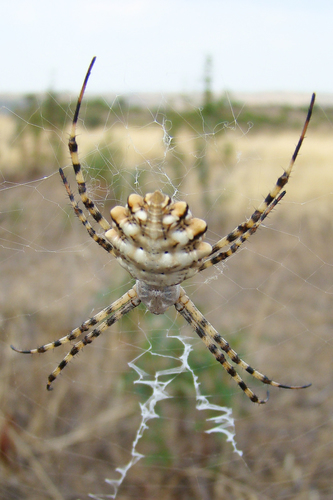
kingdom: Animalia
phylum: Arthropoda
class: Arachnida
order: Araneae
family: Araneidae
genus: Argiope
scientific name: Argiope lobata
